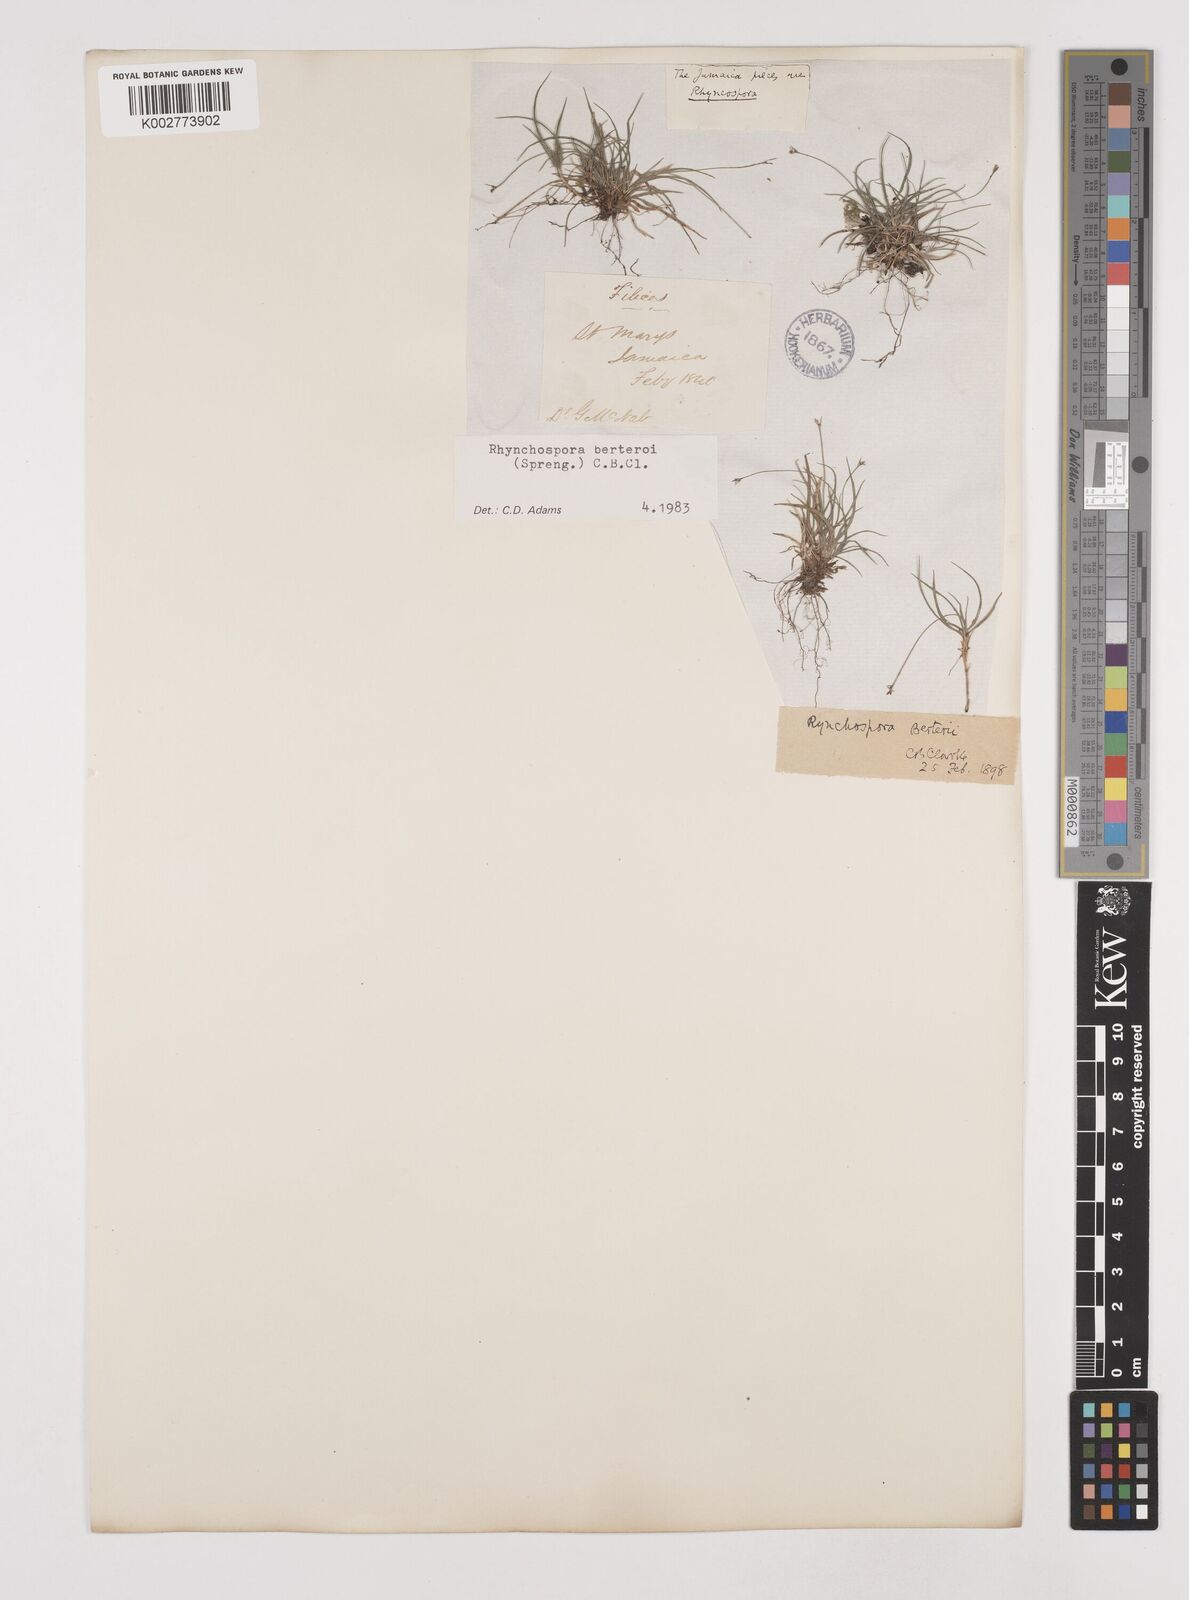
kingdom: Plantae
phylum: Tracheophyta
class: Liliopsida
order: Poales
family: Cyperaceae
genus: Rhynchospora
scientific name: Rhynchospora berteroi
